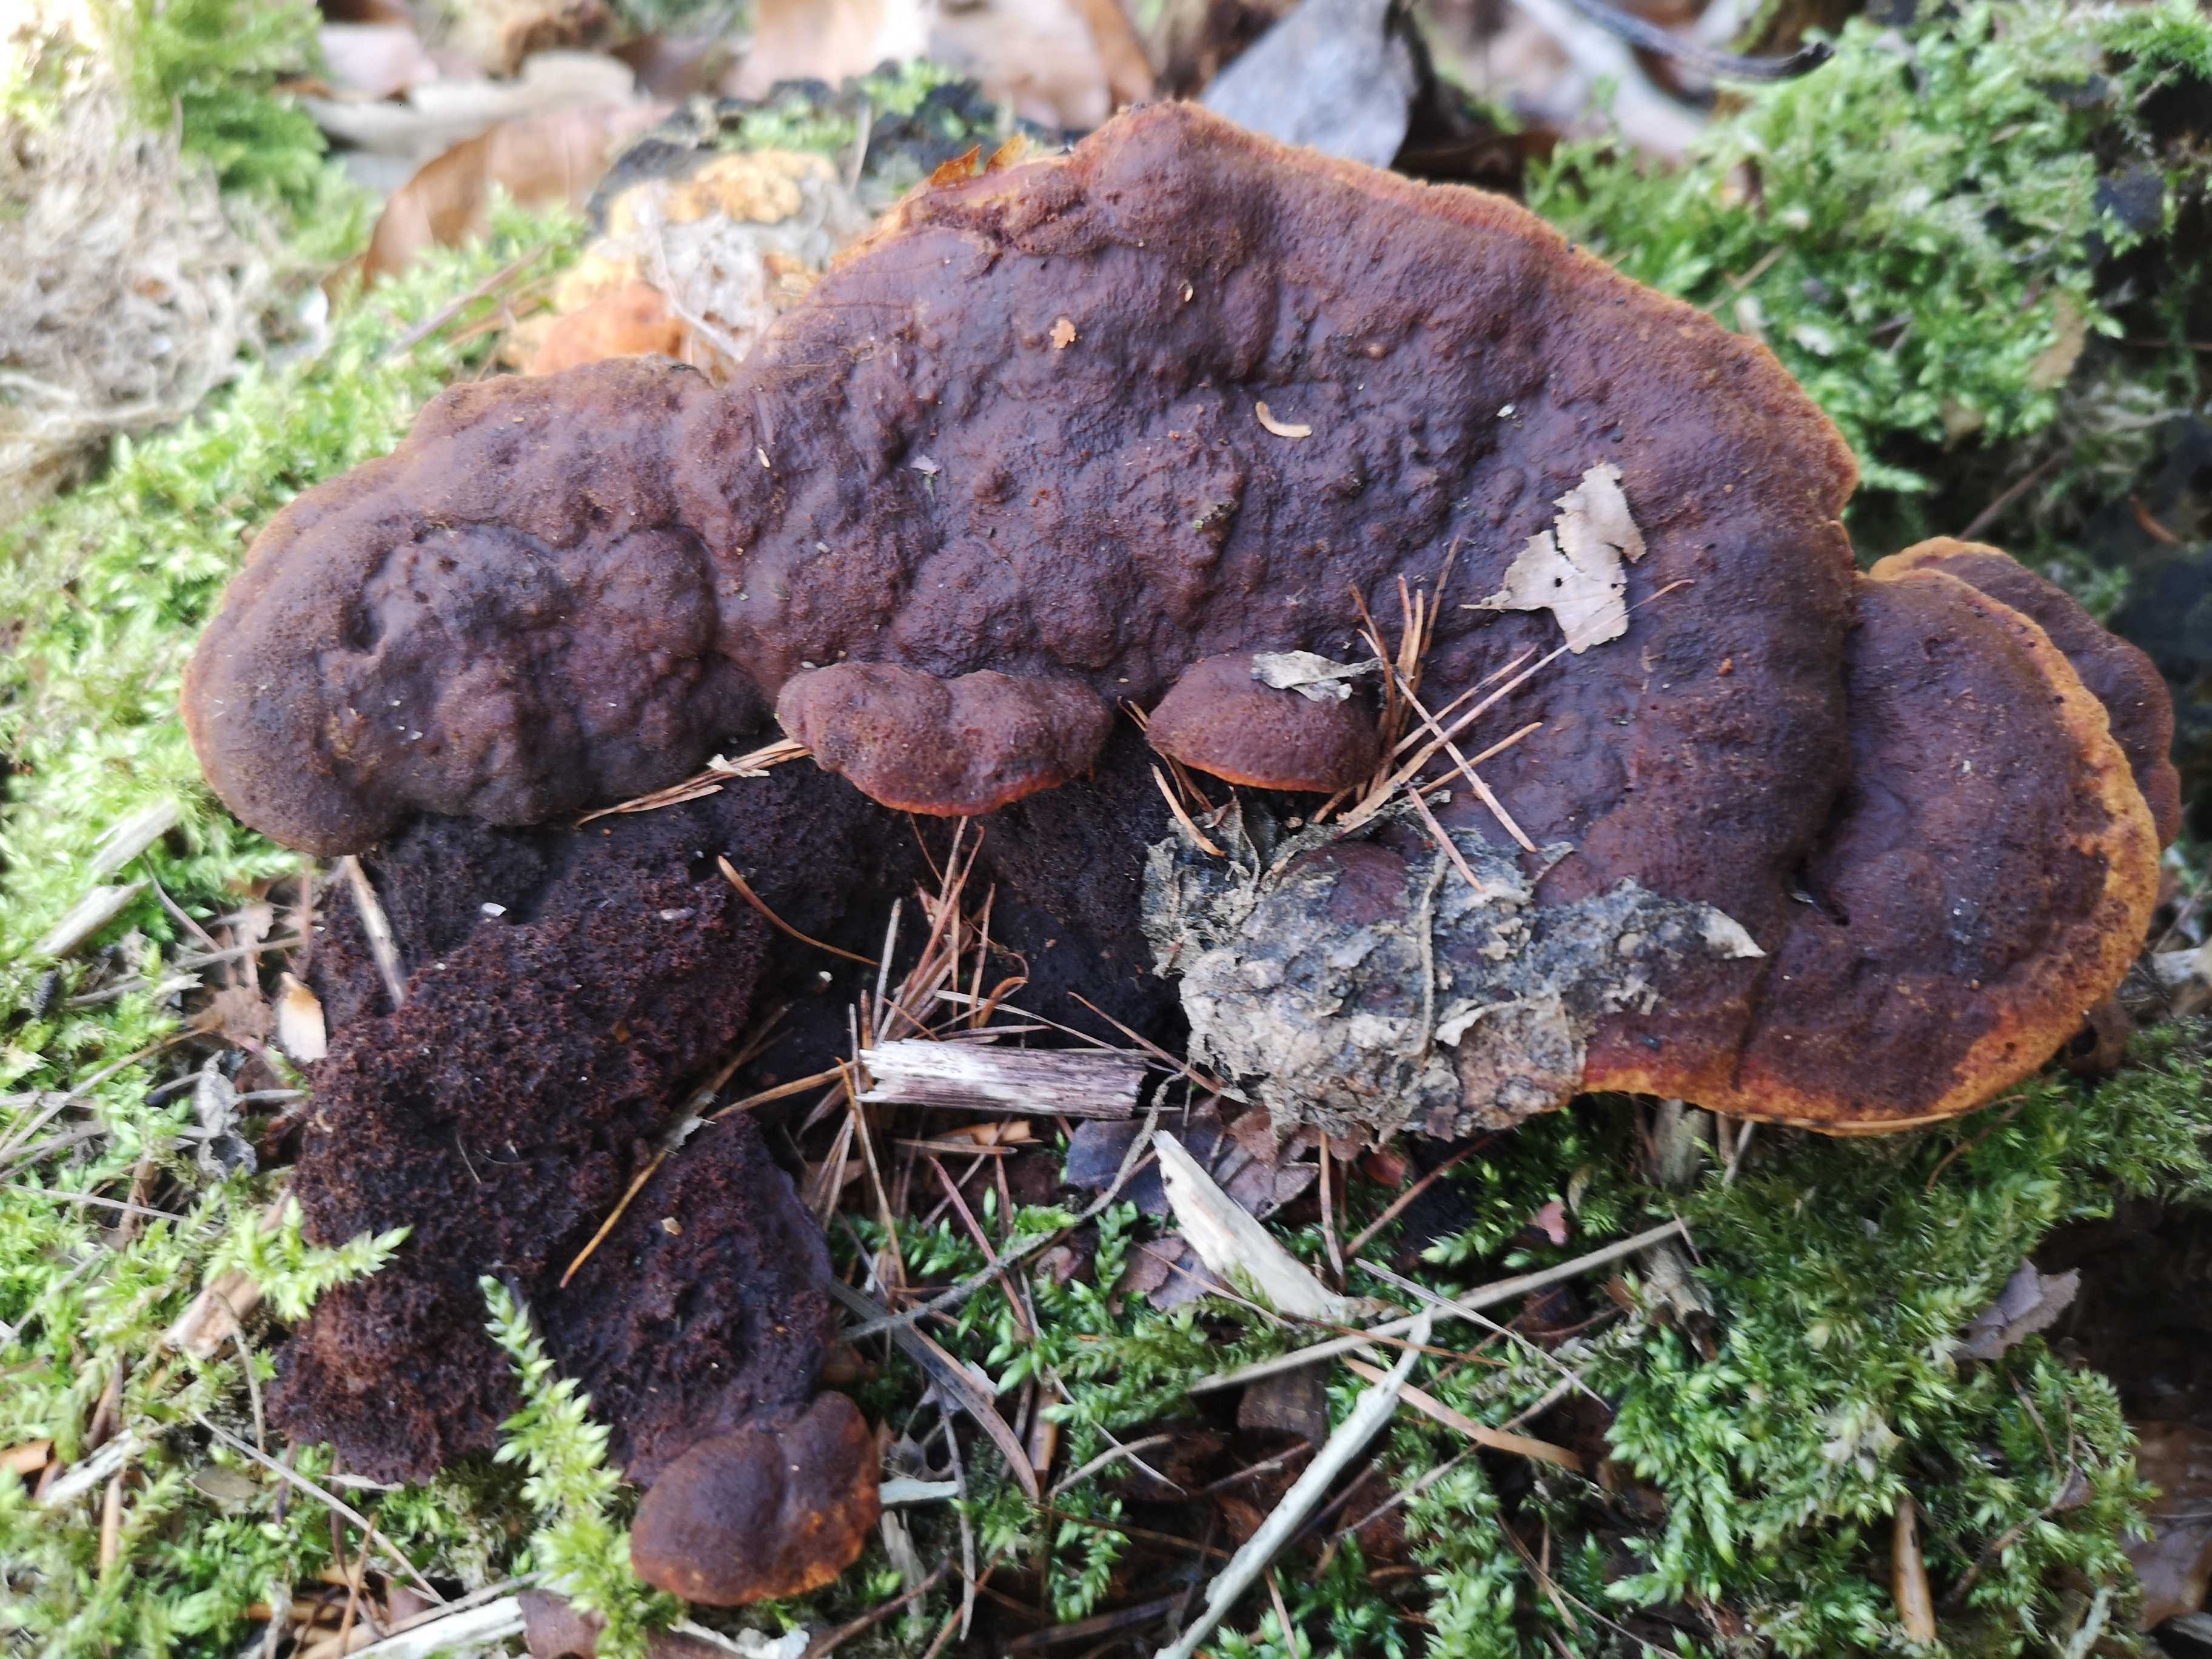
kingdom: Fungi
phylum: Basidiomycota
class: Agaricomycetes
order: Gloeophyllales
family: Gloeophyllaceae
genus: Gloeophyllum
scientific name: Gloeophyllum odoratum
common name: duftende korkhat
